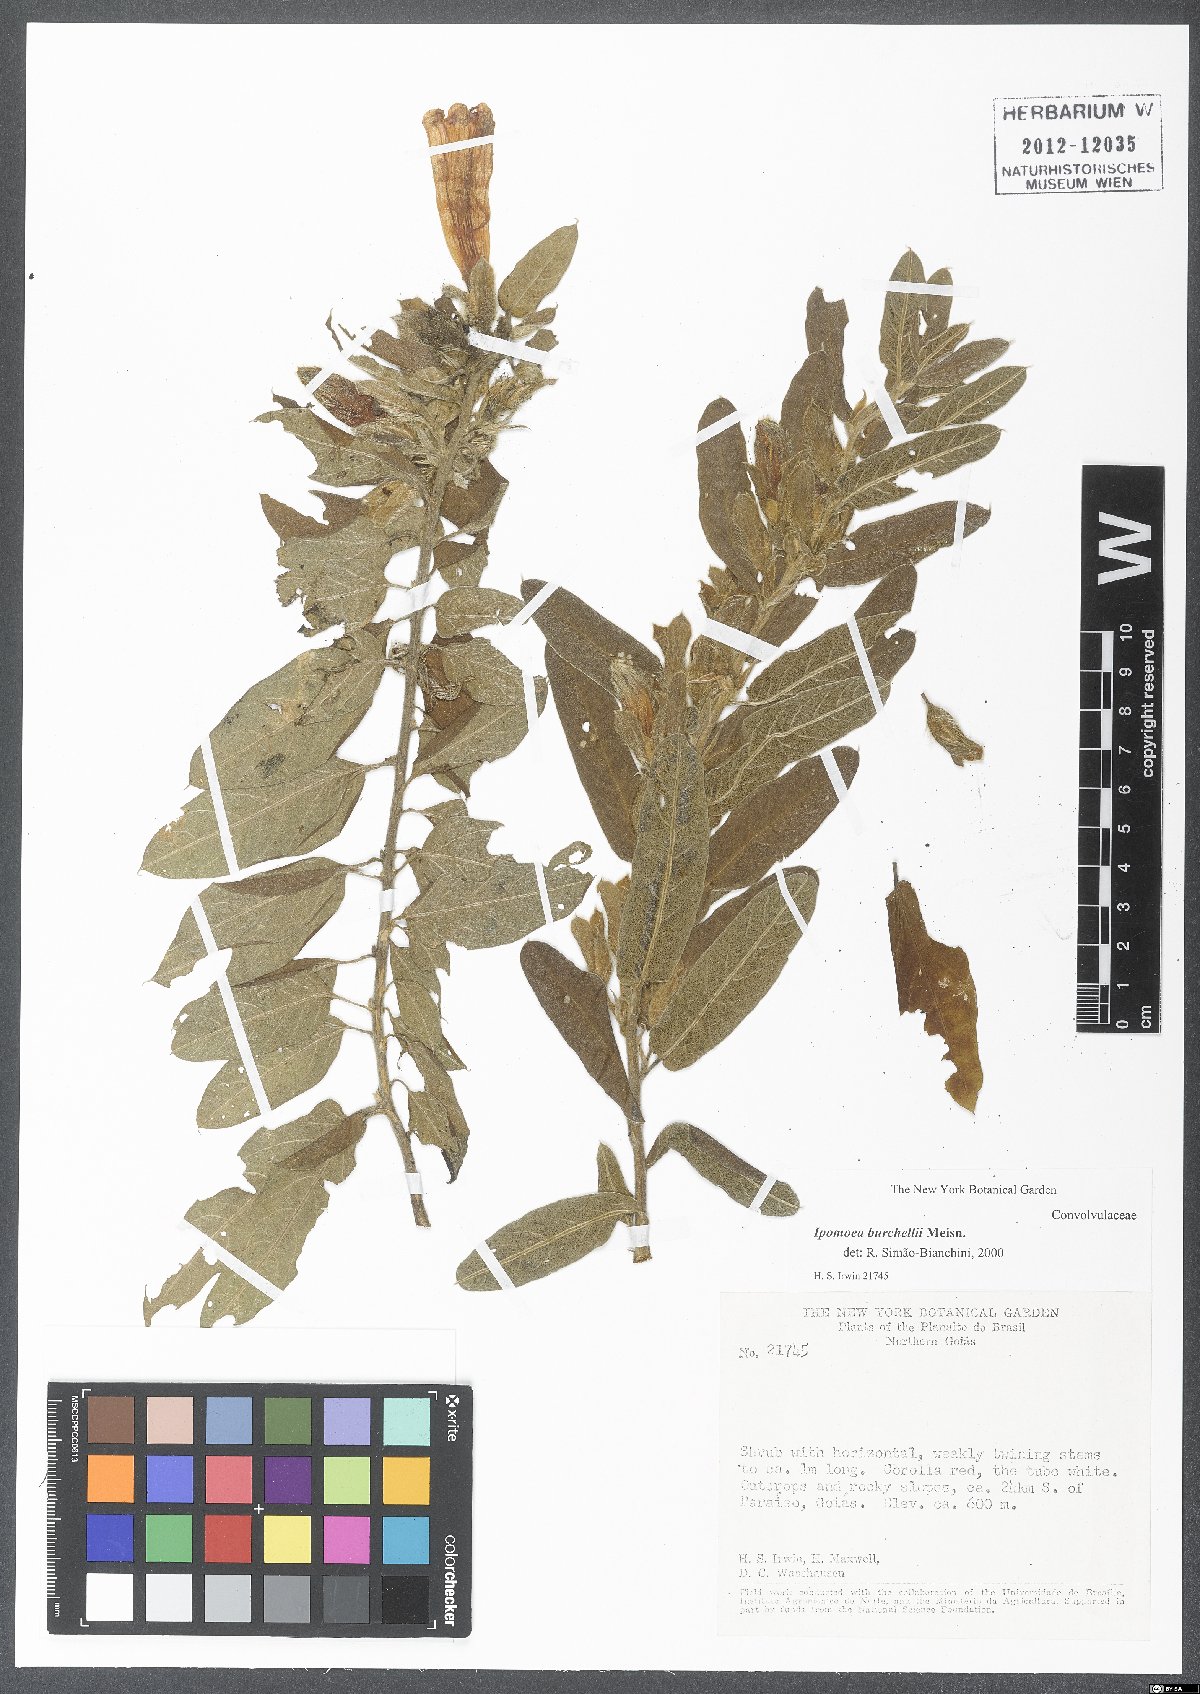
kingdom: Plantae
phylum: Tracheophyta
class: Magnoliopsida
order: Solanales
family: Convolvulaceae
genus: Ipomoea
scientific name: Ipomoea burchellii
